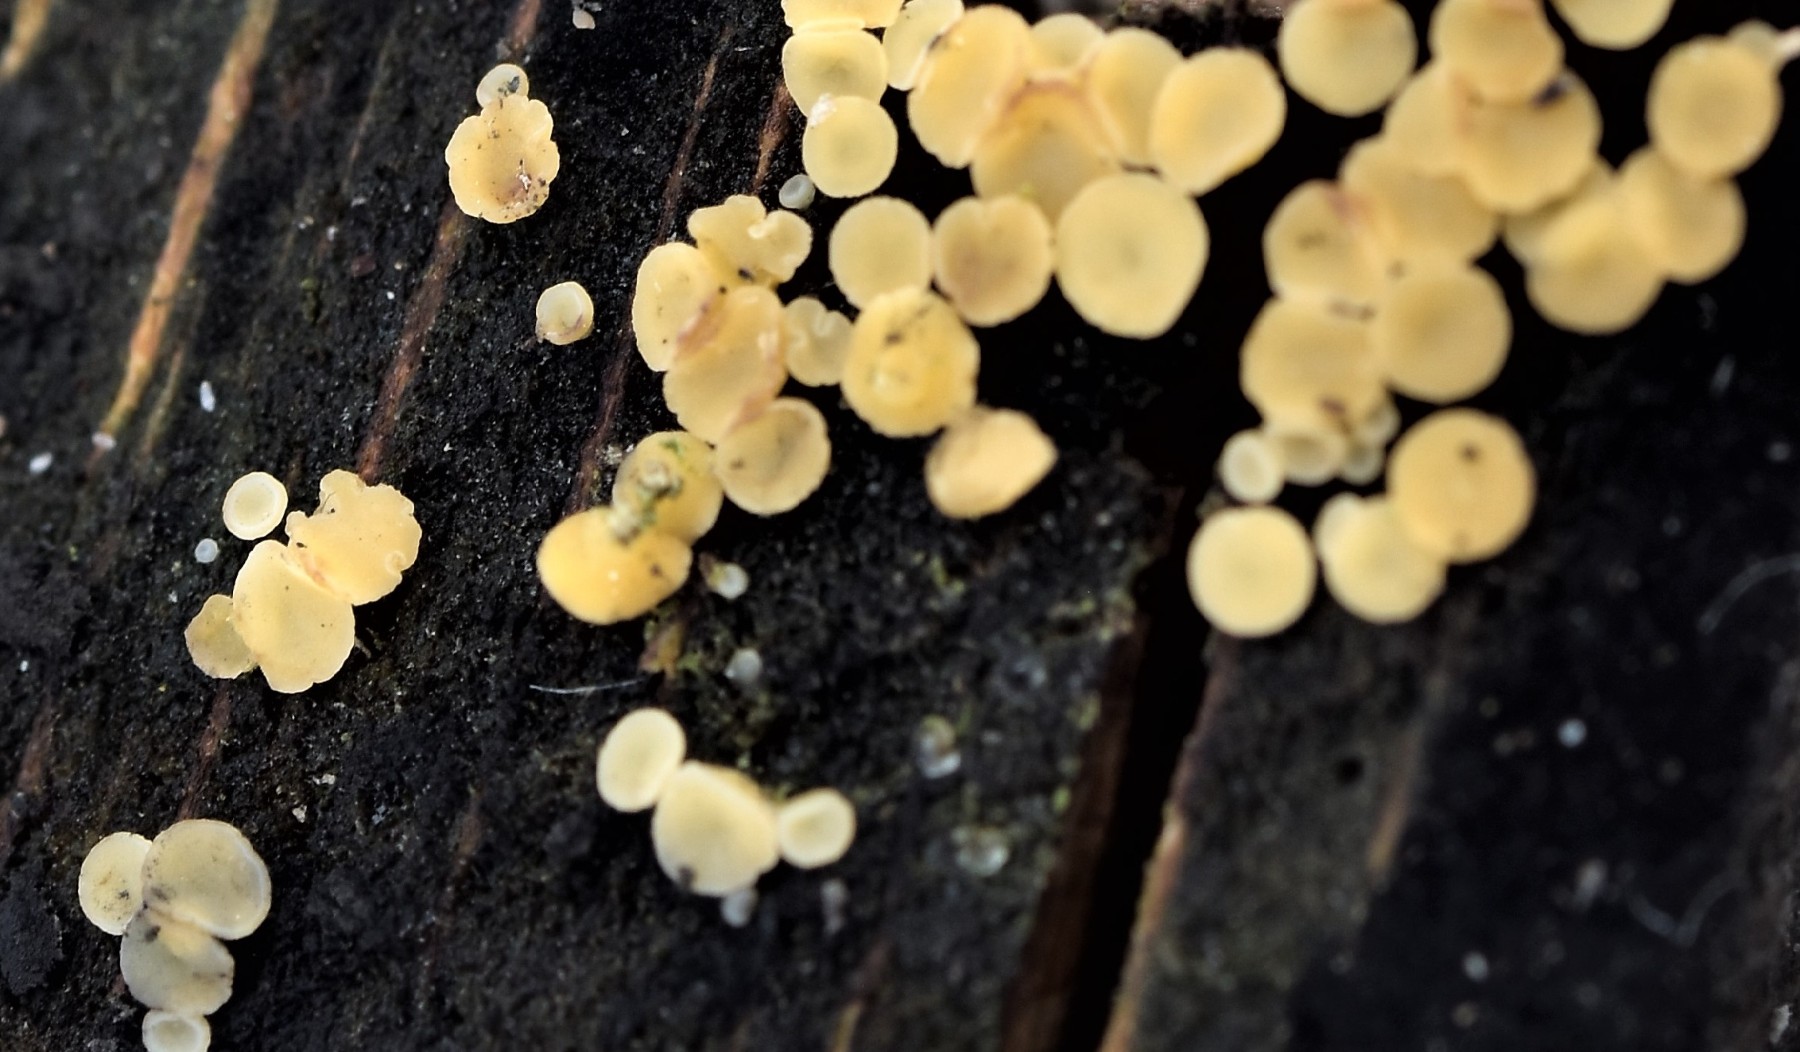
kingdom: Fungi
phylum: Ascomycota
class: Leotiomycetes
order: Helotiales
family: Helotiaceae
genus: Bisporella
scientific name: Bisporella subpallida
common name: lys snitskive
